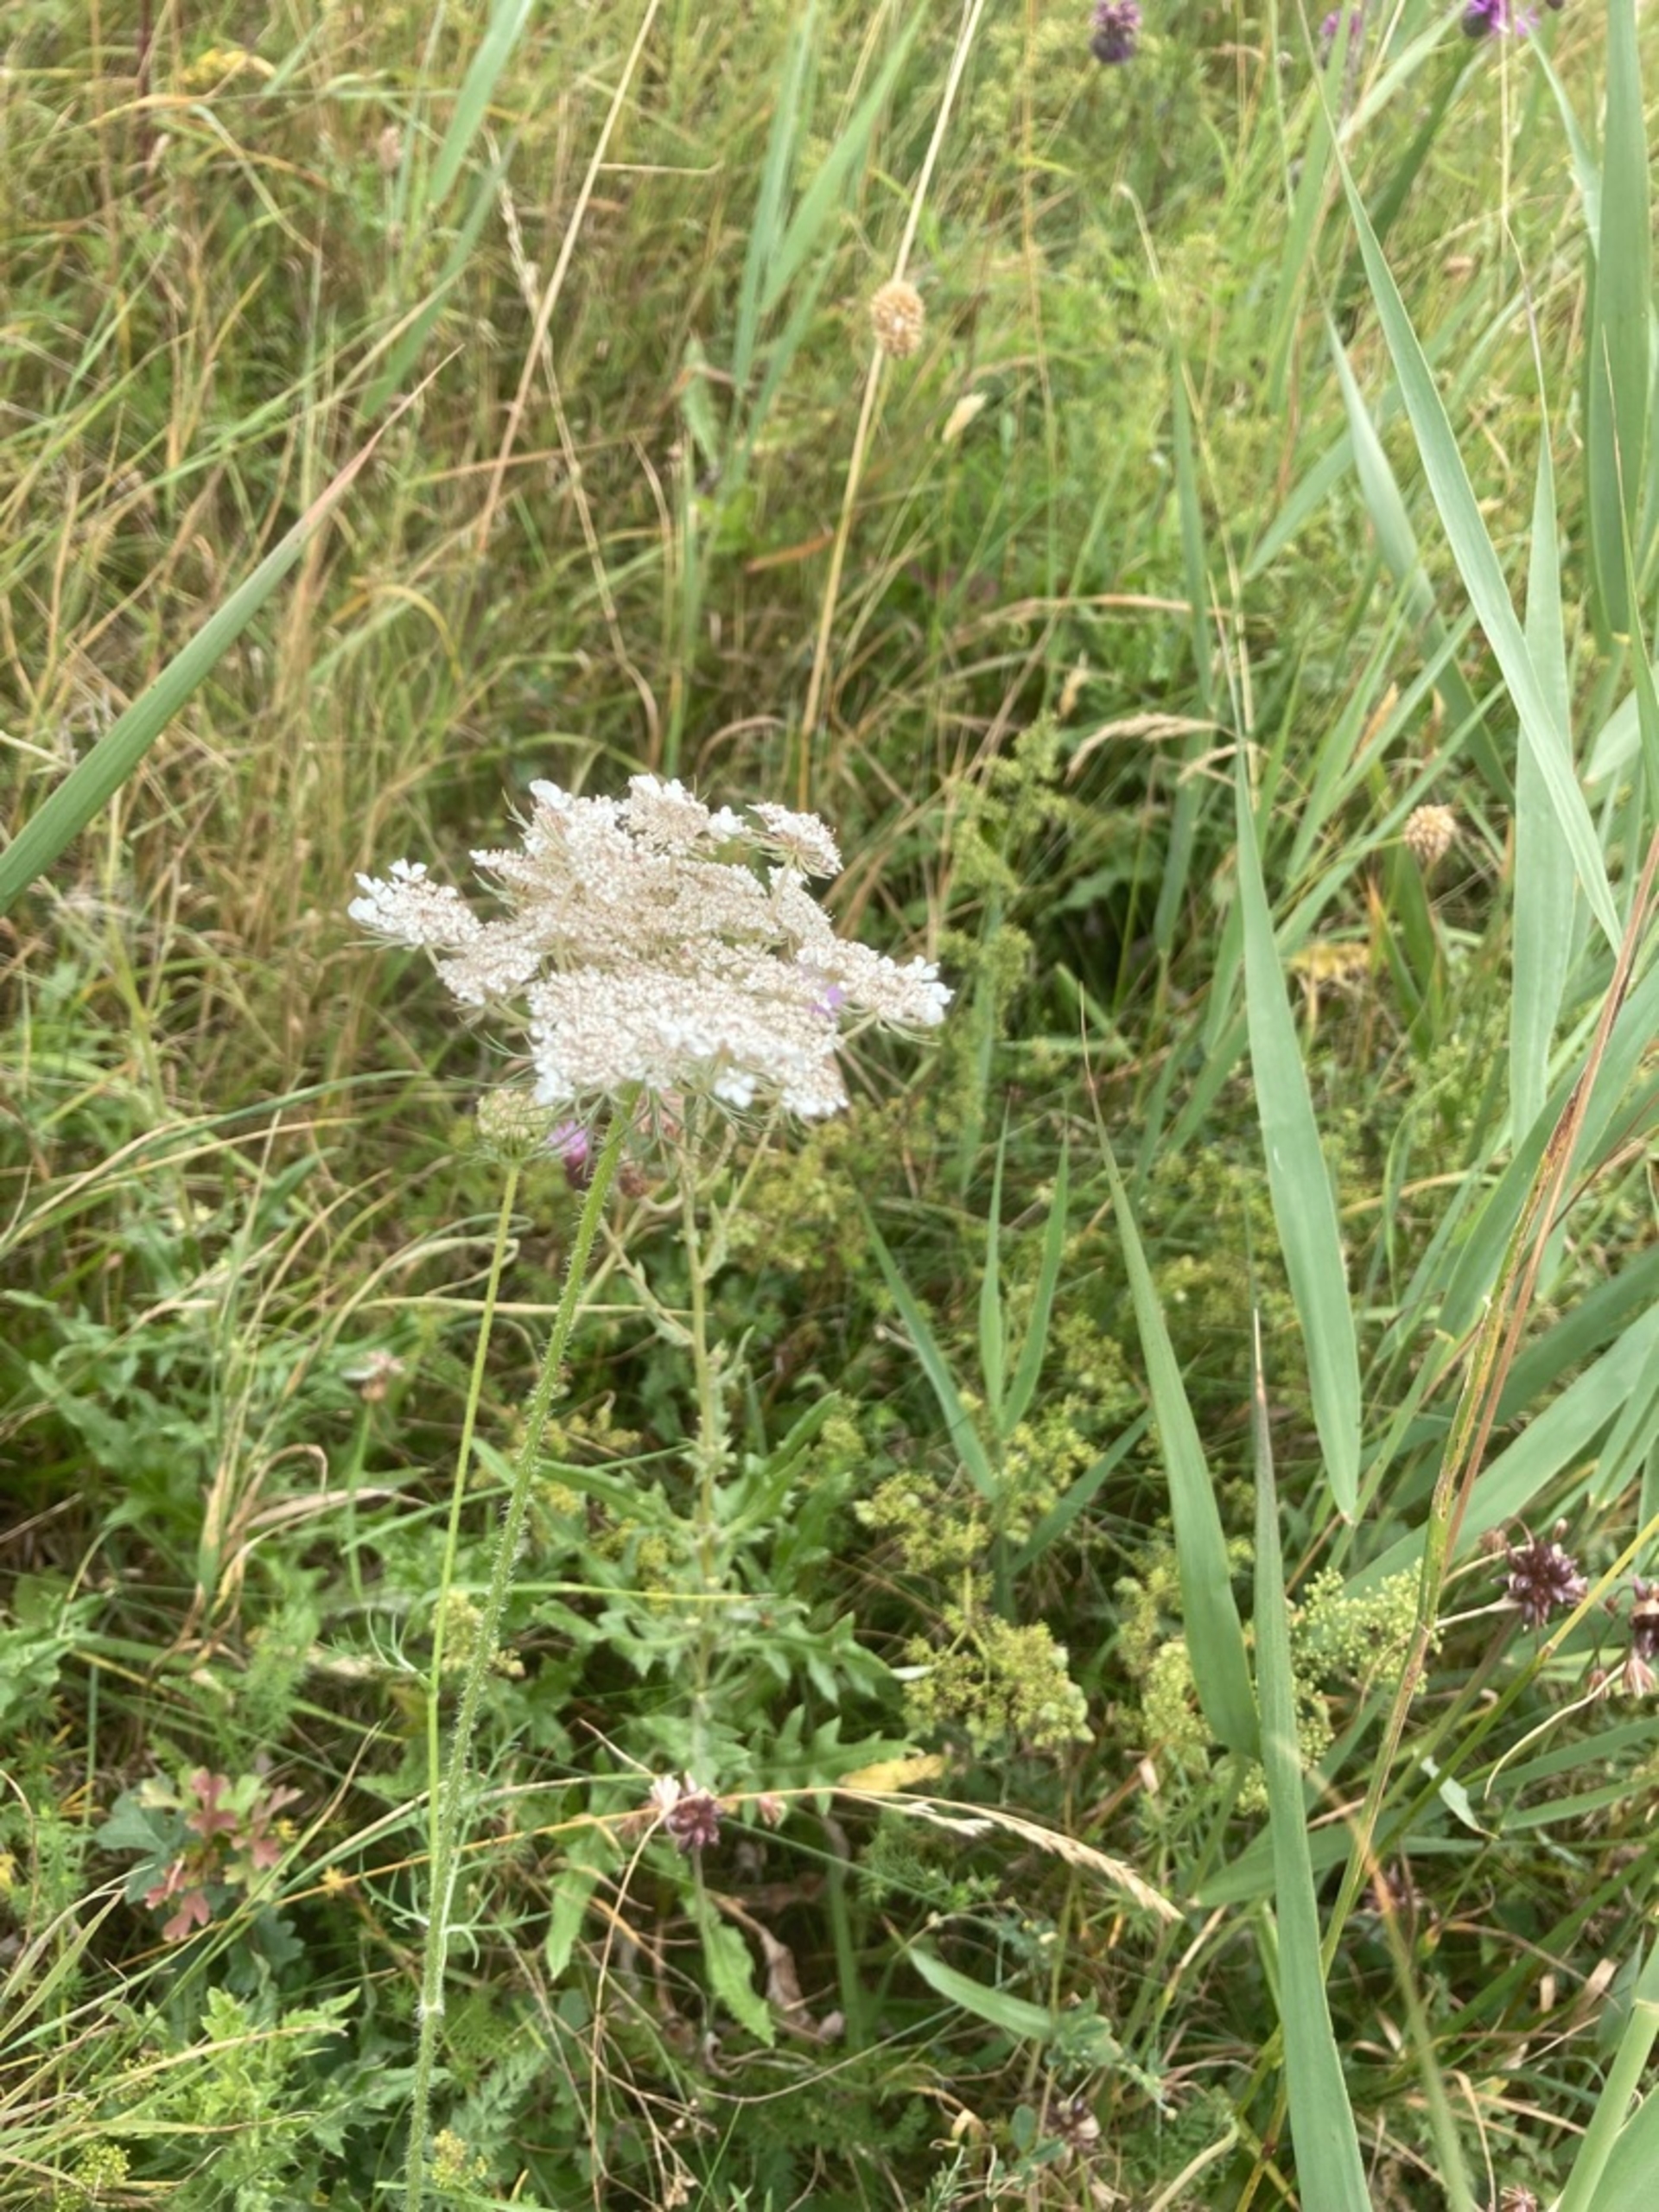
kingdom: Plantae
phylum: Tracheophyta
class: Magnoliopsida
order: Apiales
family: Apiaceae
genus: Daucus
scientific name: Daucus carota
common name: Vild gulerod
